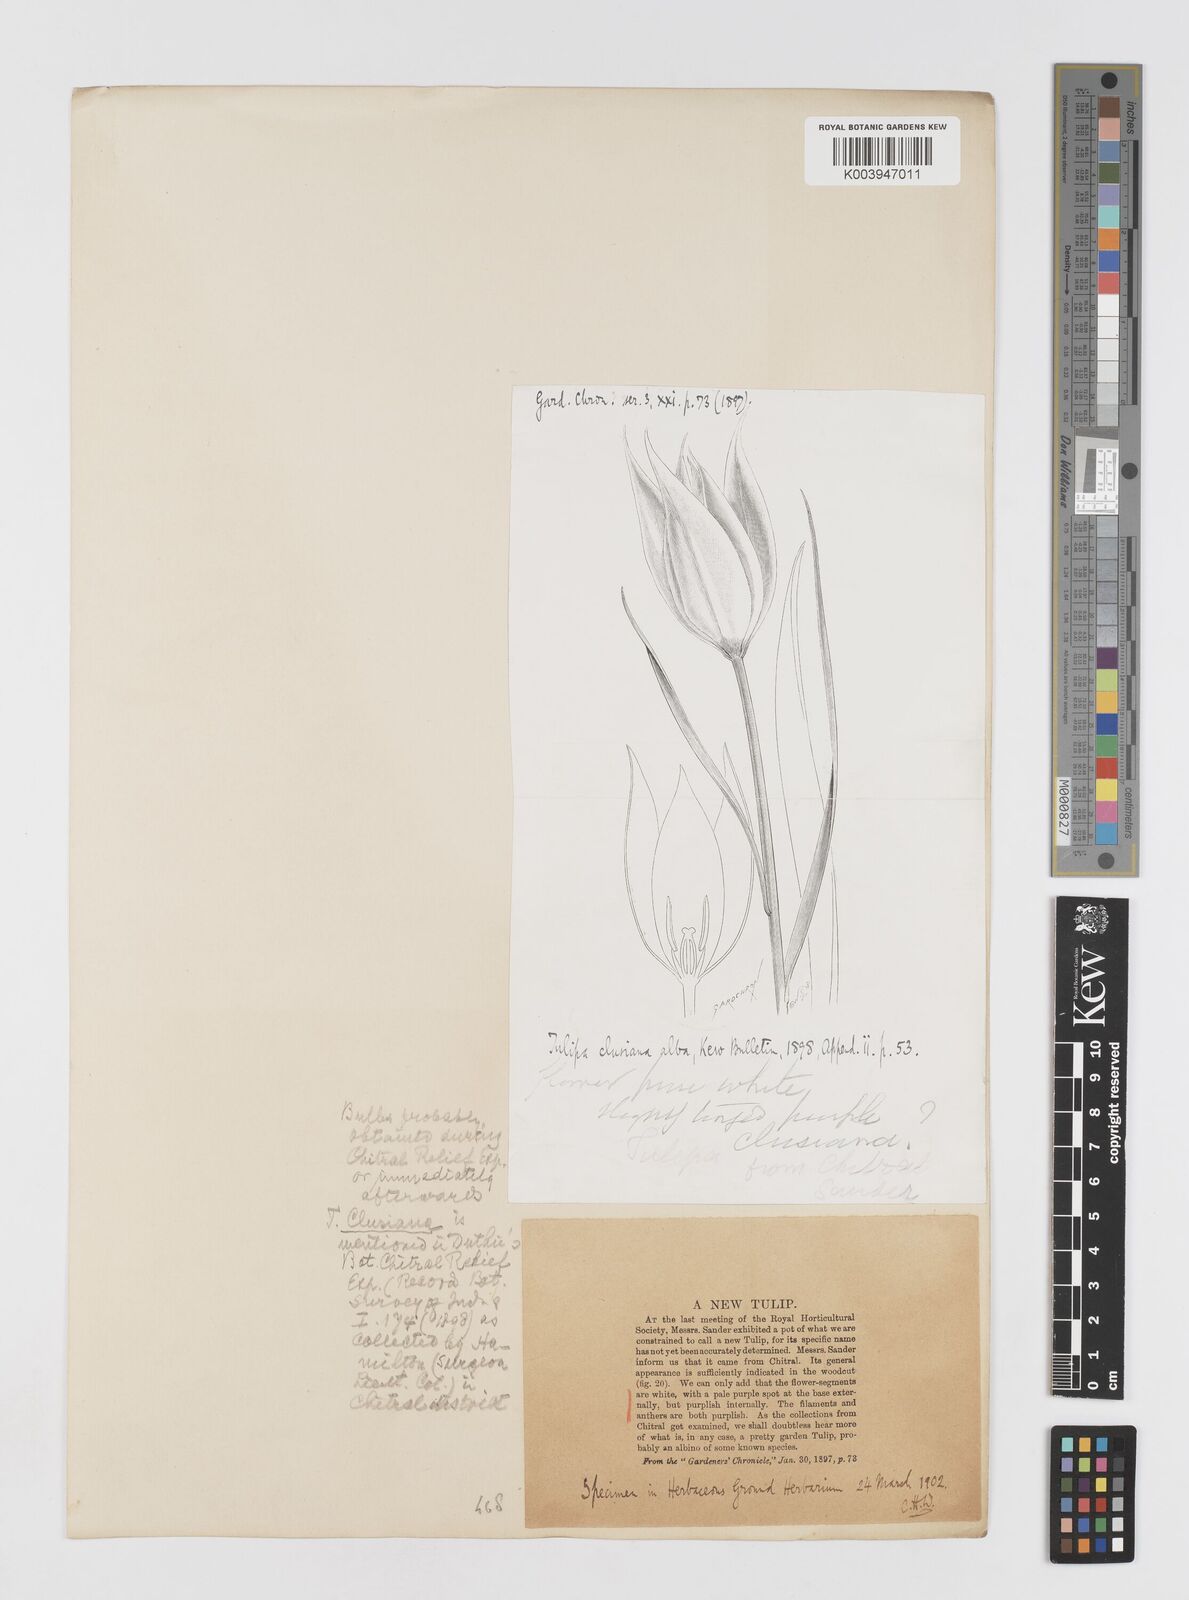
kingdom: Plantae
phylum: Tracheophyta
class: Liliopsida
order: Liliales
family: Liliaceae
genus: Tulipa
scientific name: Tulipa clusiana
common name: Lady tulip
